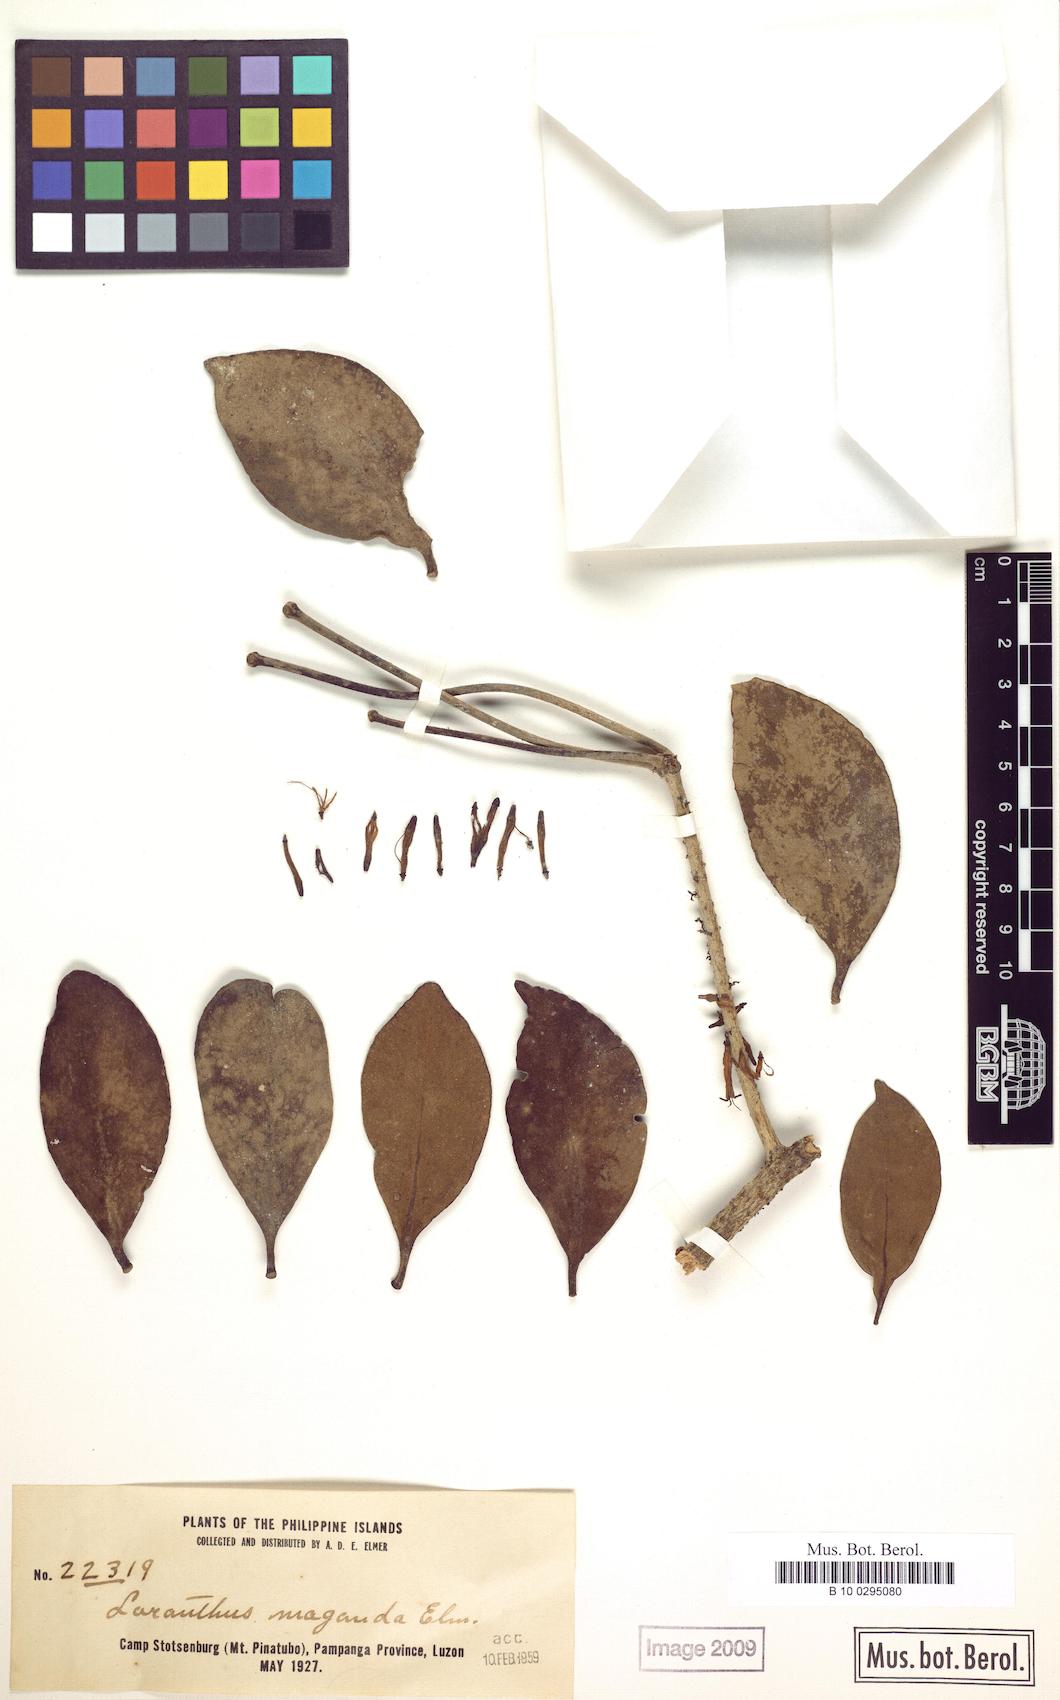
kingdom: Plantae
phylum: Tracheophyta
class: Magnoliopsida
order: Santalales
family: Loranthaceae
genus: Amyema
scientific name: Amyema fasciculata
